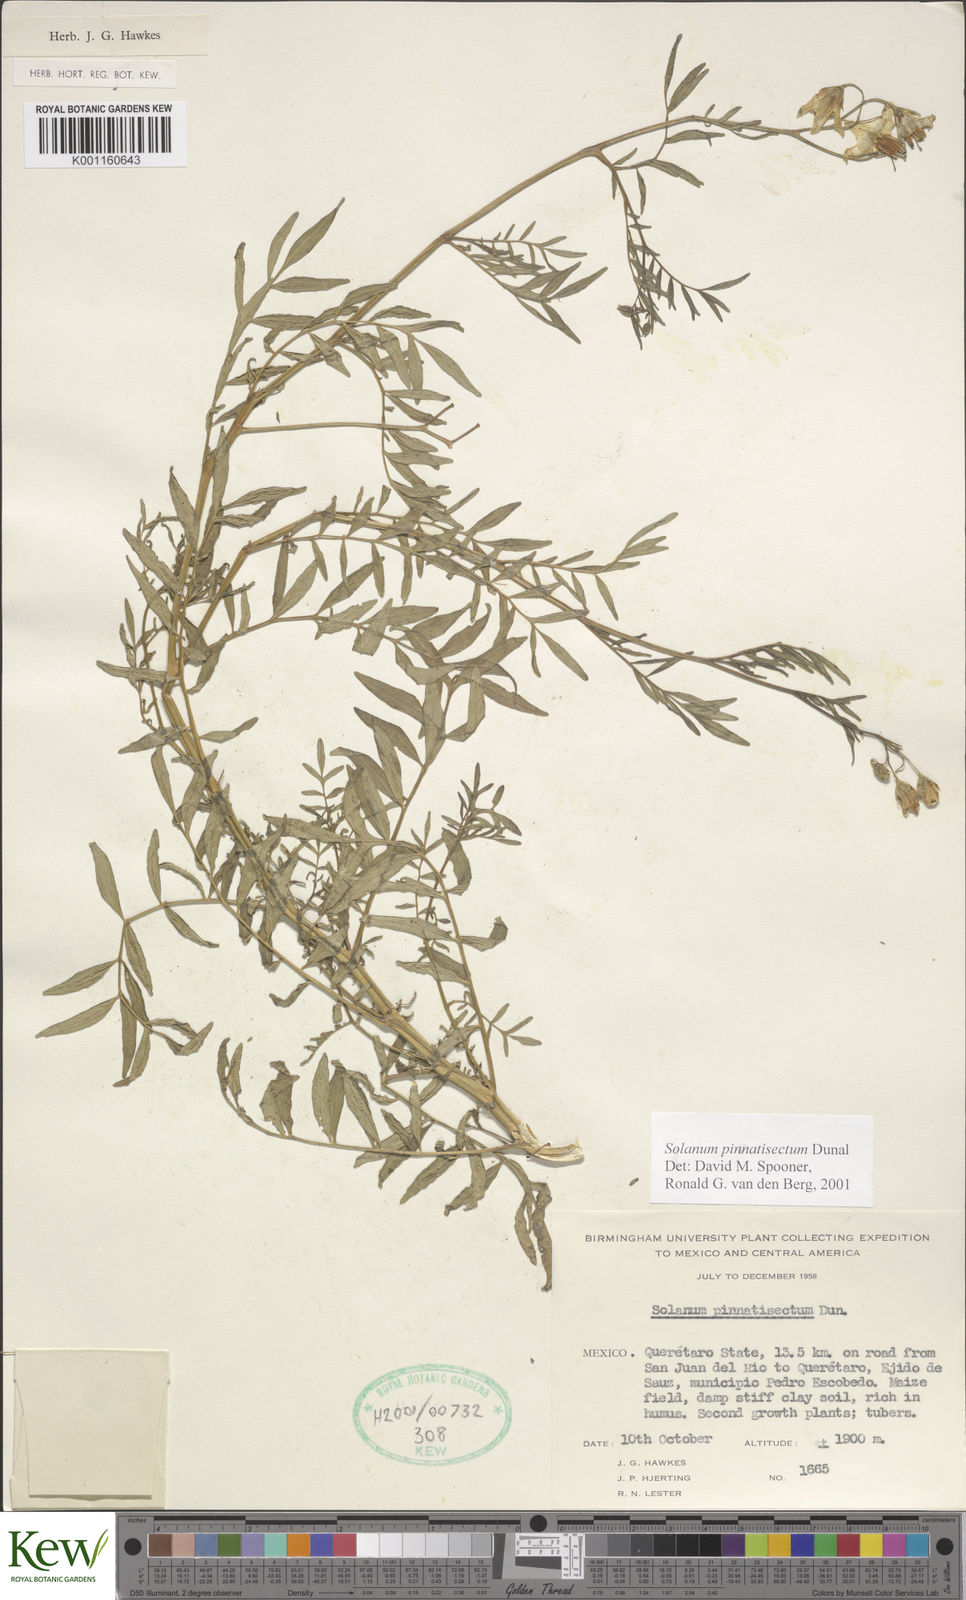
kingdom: Plantae
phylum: Tracheophyta
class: Magnoliopsida
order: Solanales
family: Solanaceae
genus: Solanum
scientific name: Solanum pinnatisectum
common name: Tansyleaf nightshade
